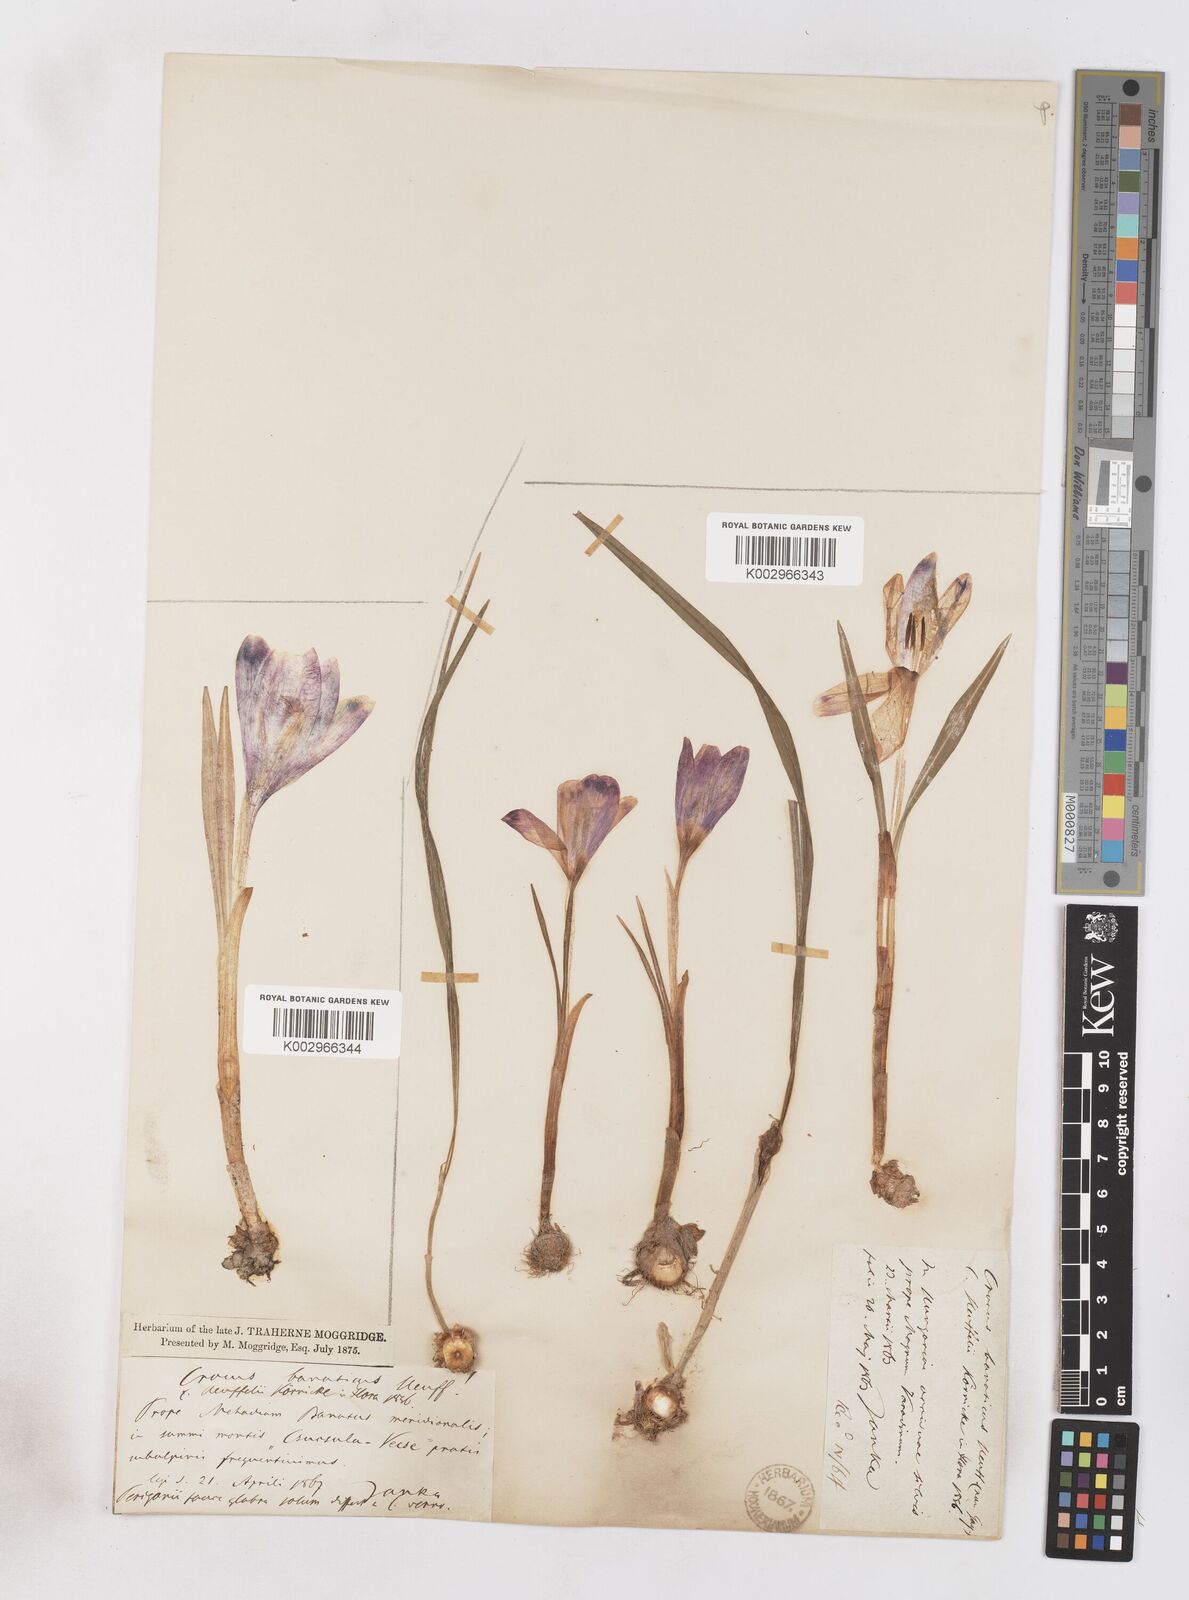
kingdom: Plantae
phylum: Tracheophyta
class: Liliopsida
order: Asparagales
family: Iridaceae
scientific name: Iridaceae
